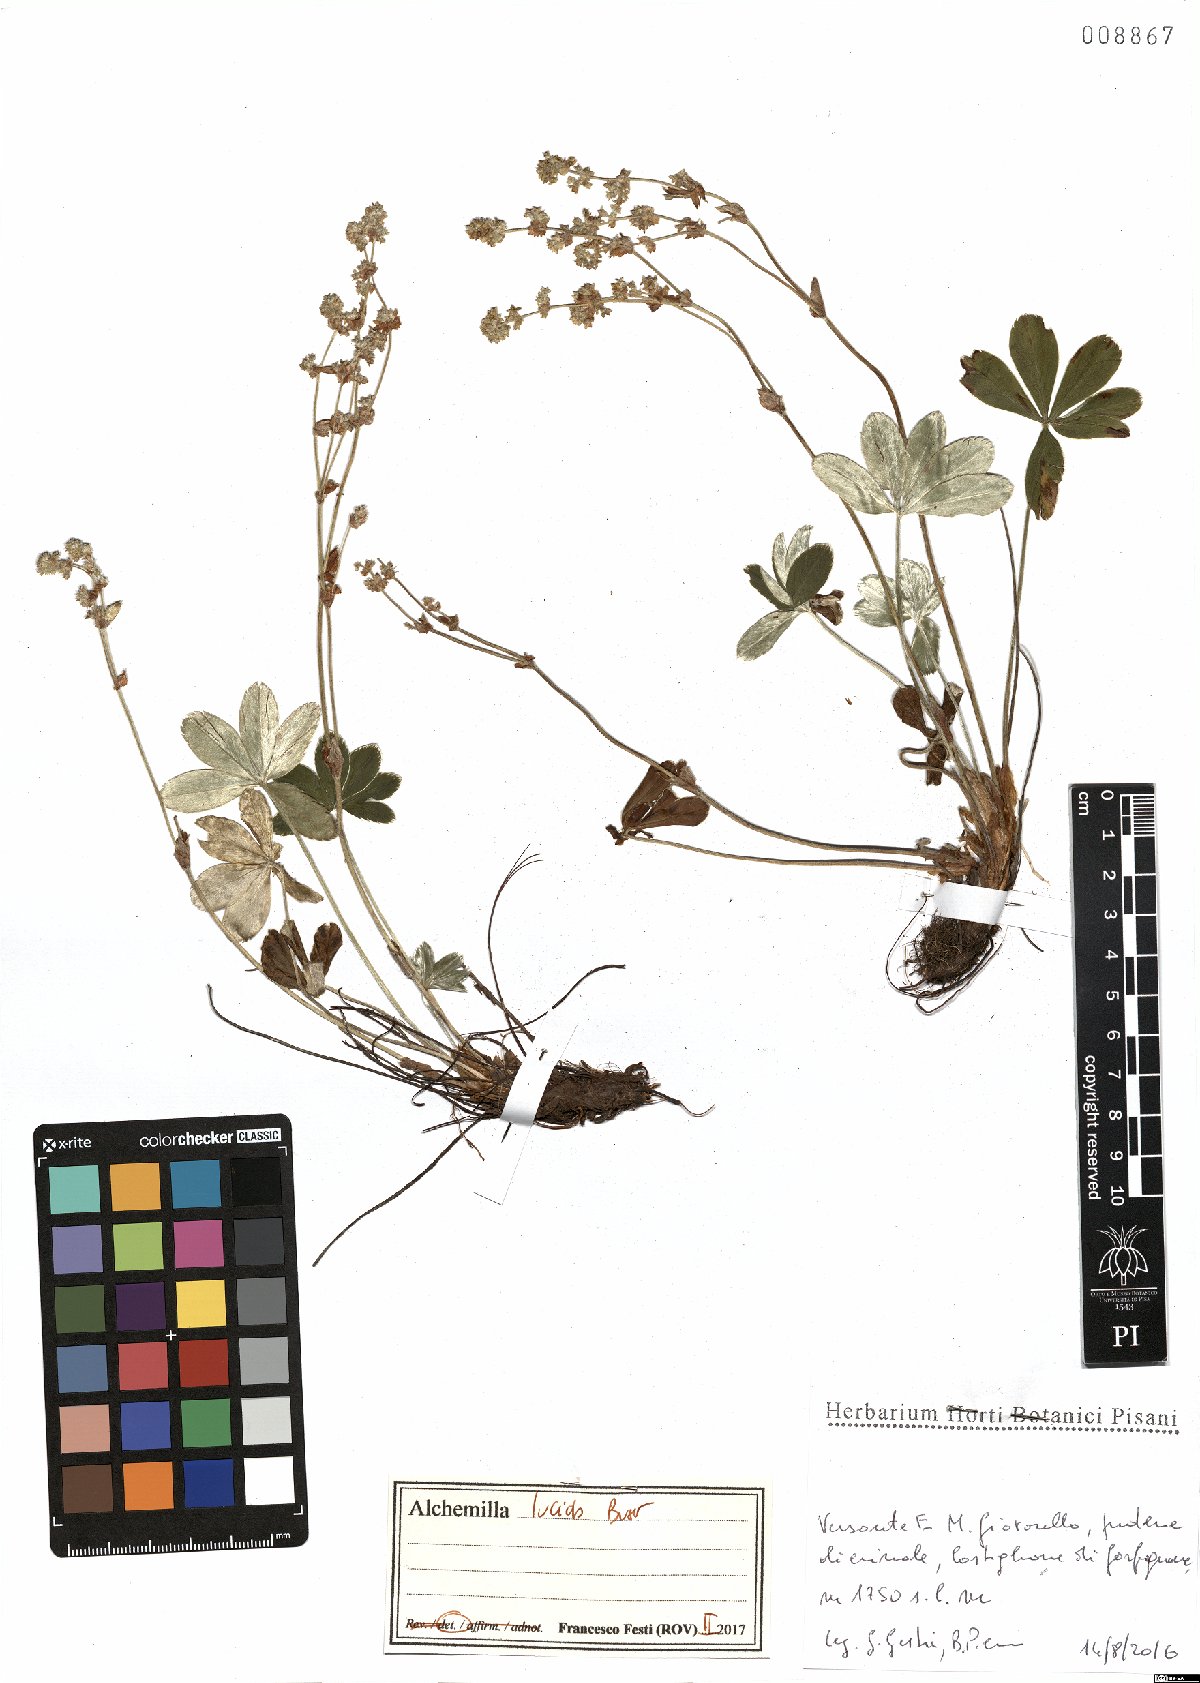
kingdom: Plantae
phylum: Tracheophyta
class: Magnoliopsida
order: Rosales
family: Rosaceae
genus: Alchemilla
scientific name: Alchemilla lucida
